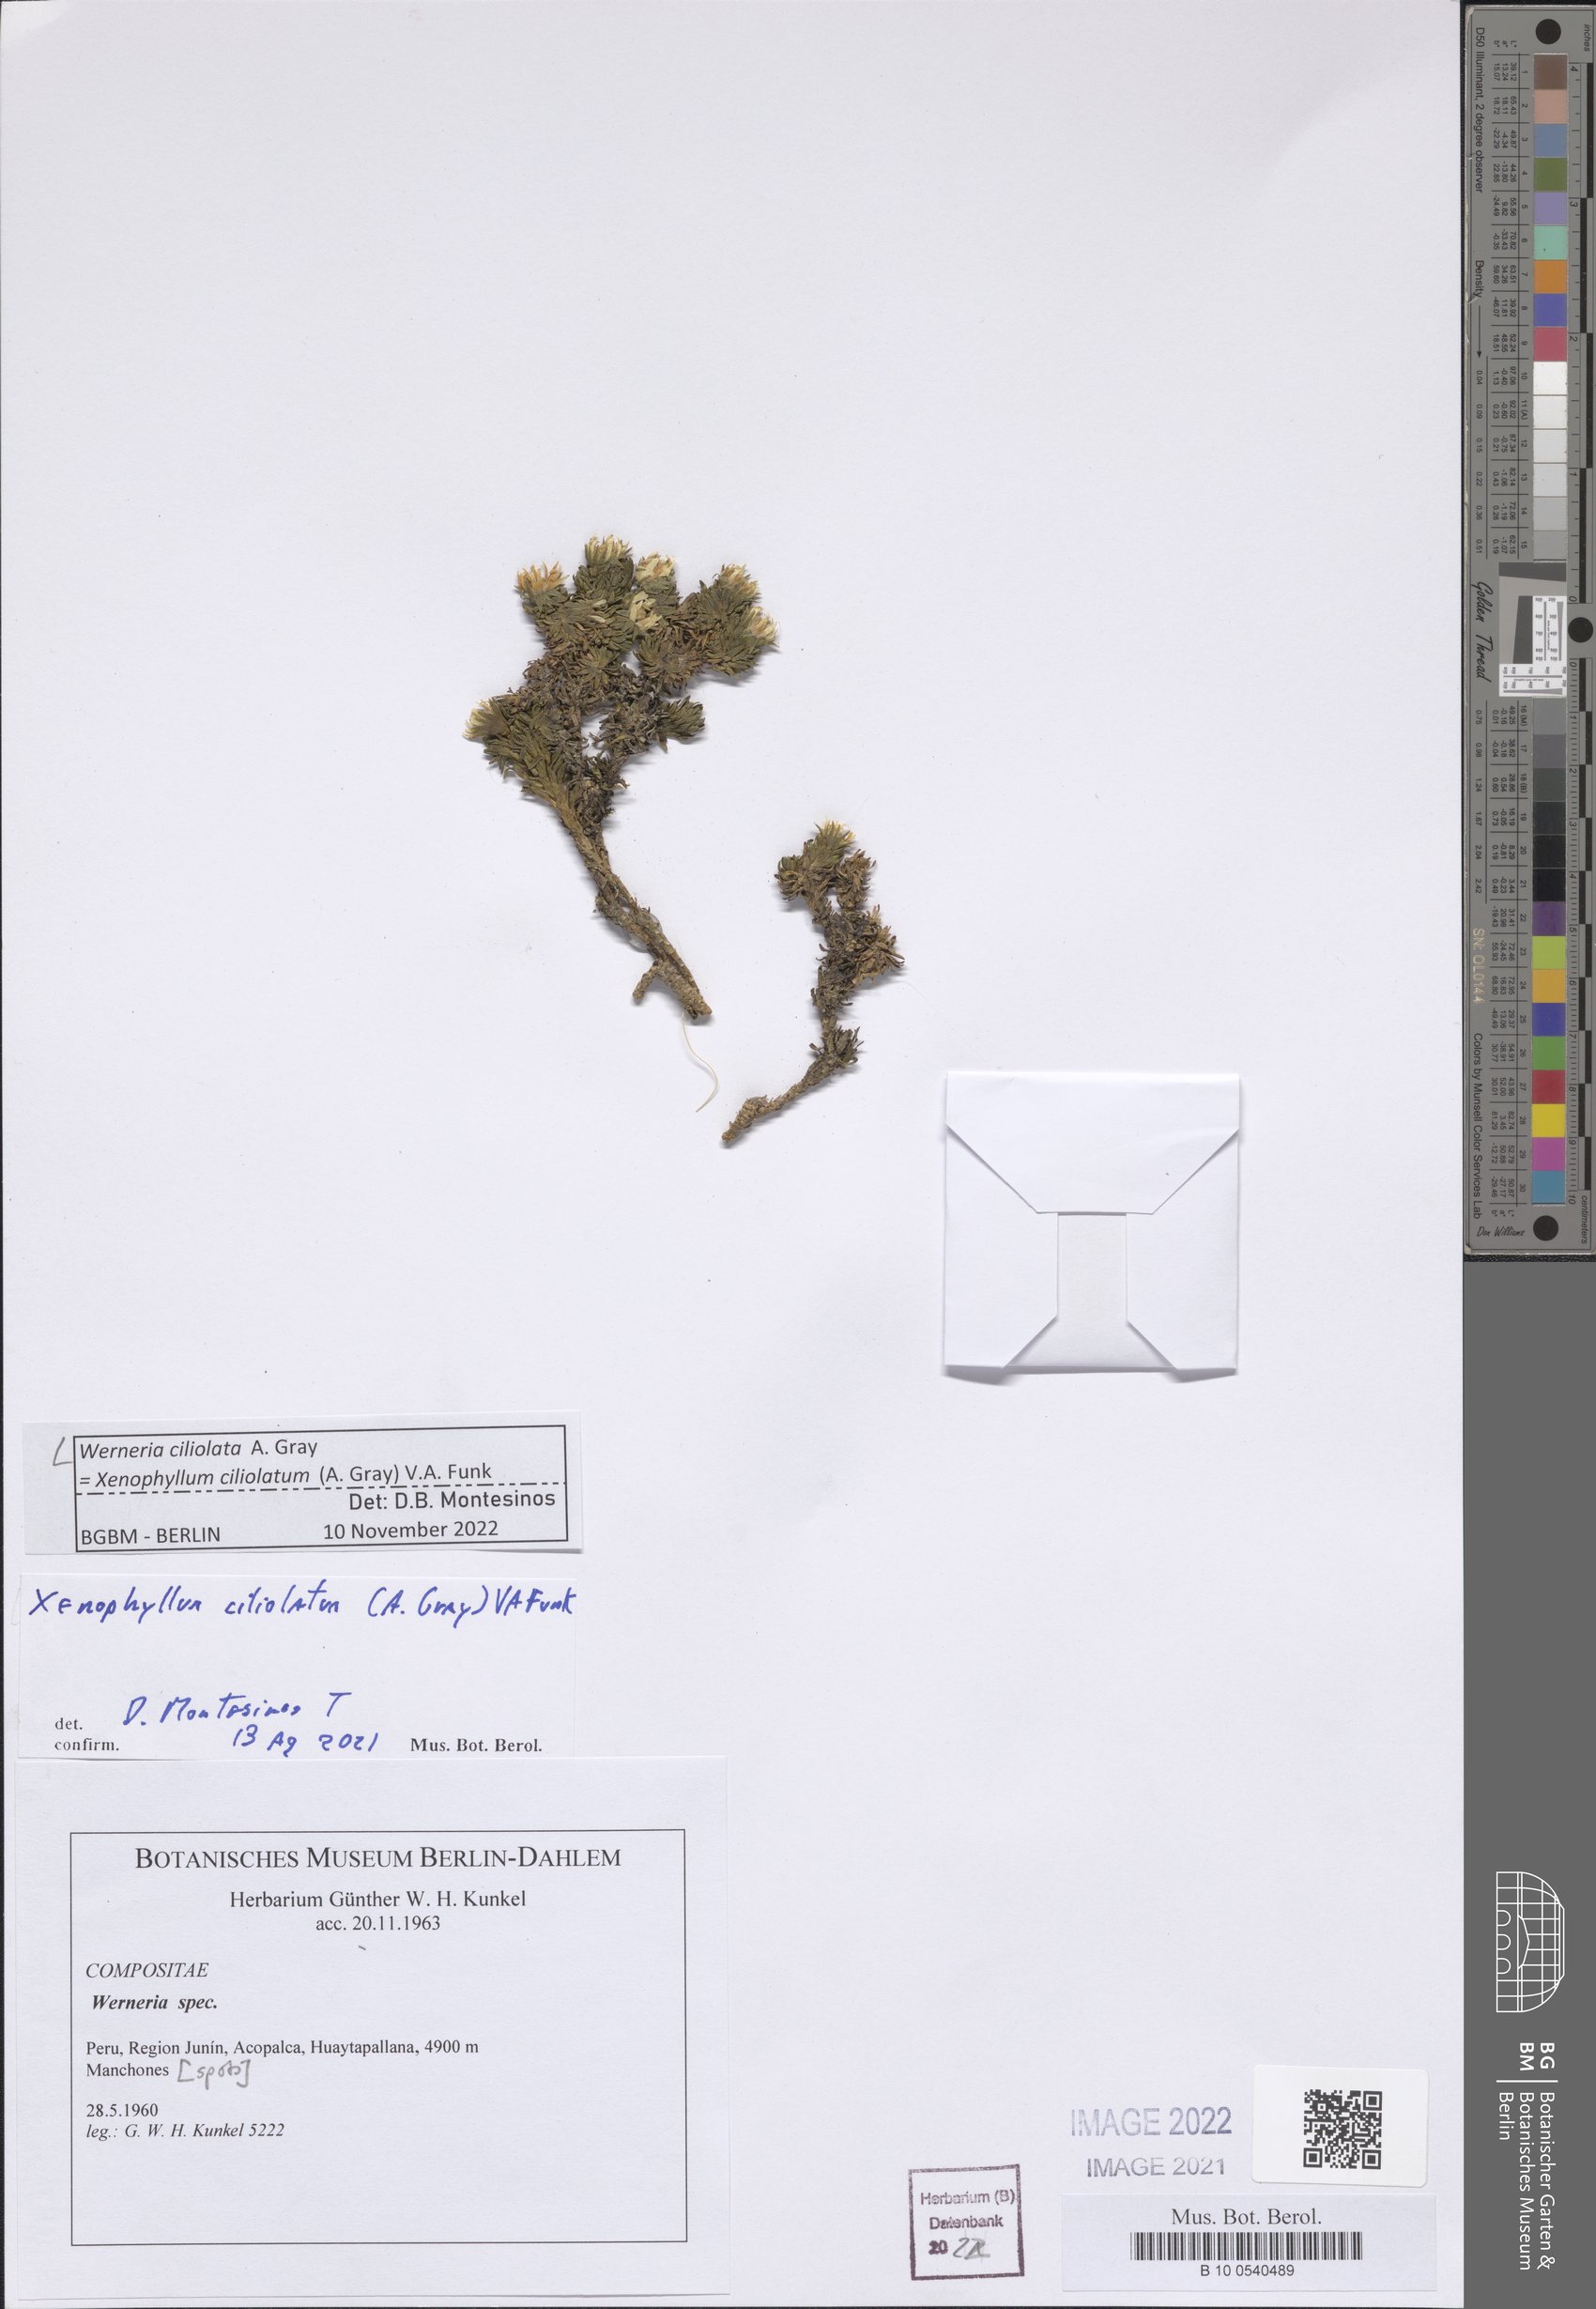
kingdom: Plantae
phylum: Tracheophyta
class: Magnoliopsida
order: Asterales
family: Asteraceae
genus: Werneria
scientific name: Werneria ciliolata
